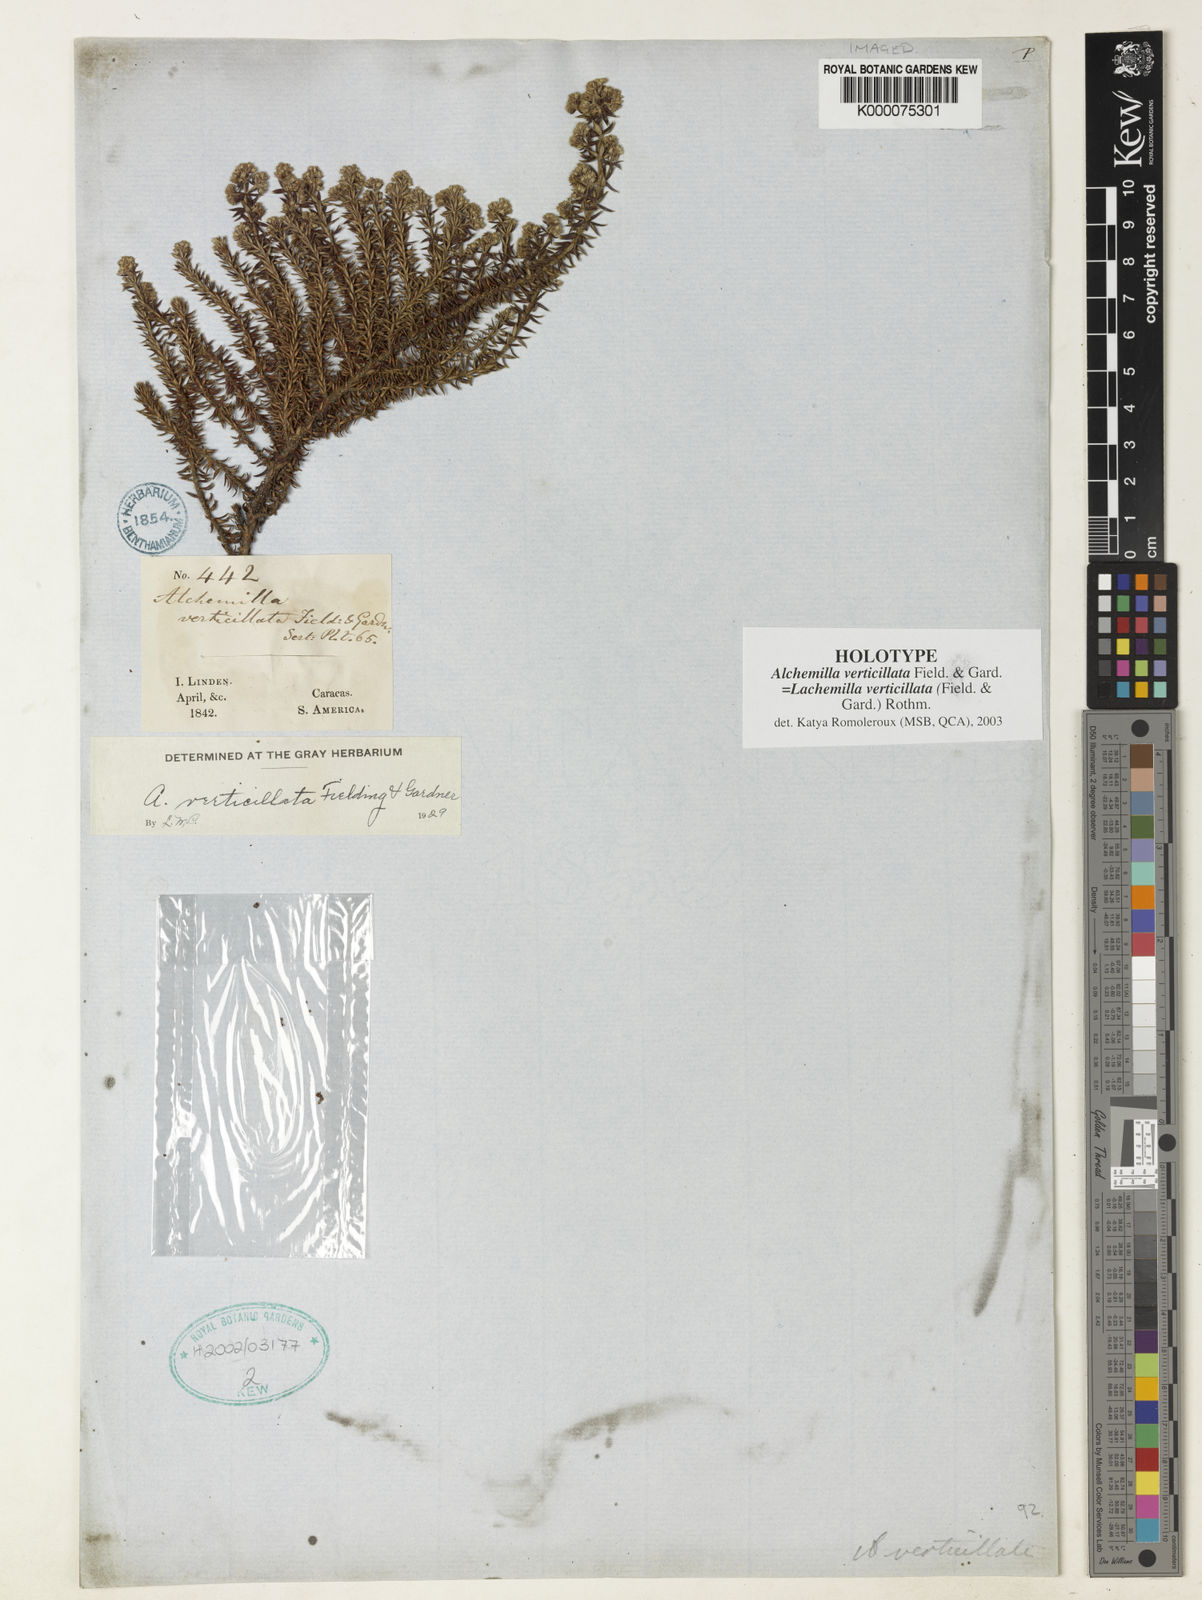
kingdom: Plantae
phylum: Tracheophyta
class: Magnoliopsida
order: Rosales
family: Rosaceae
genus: Lachemilla
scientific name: Lachemilla verticillata
